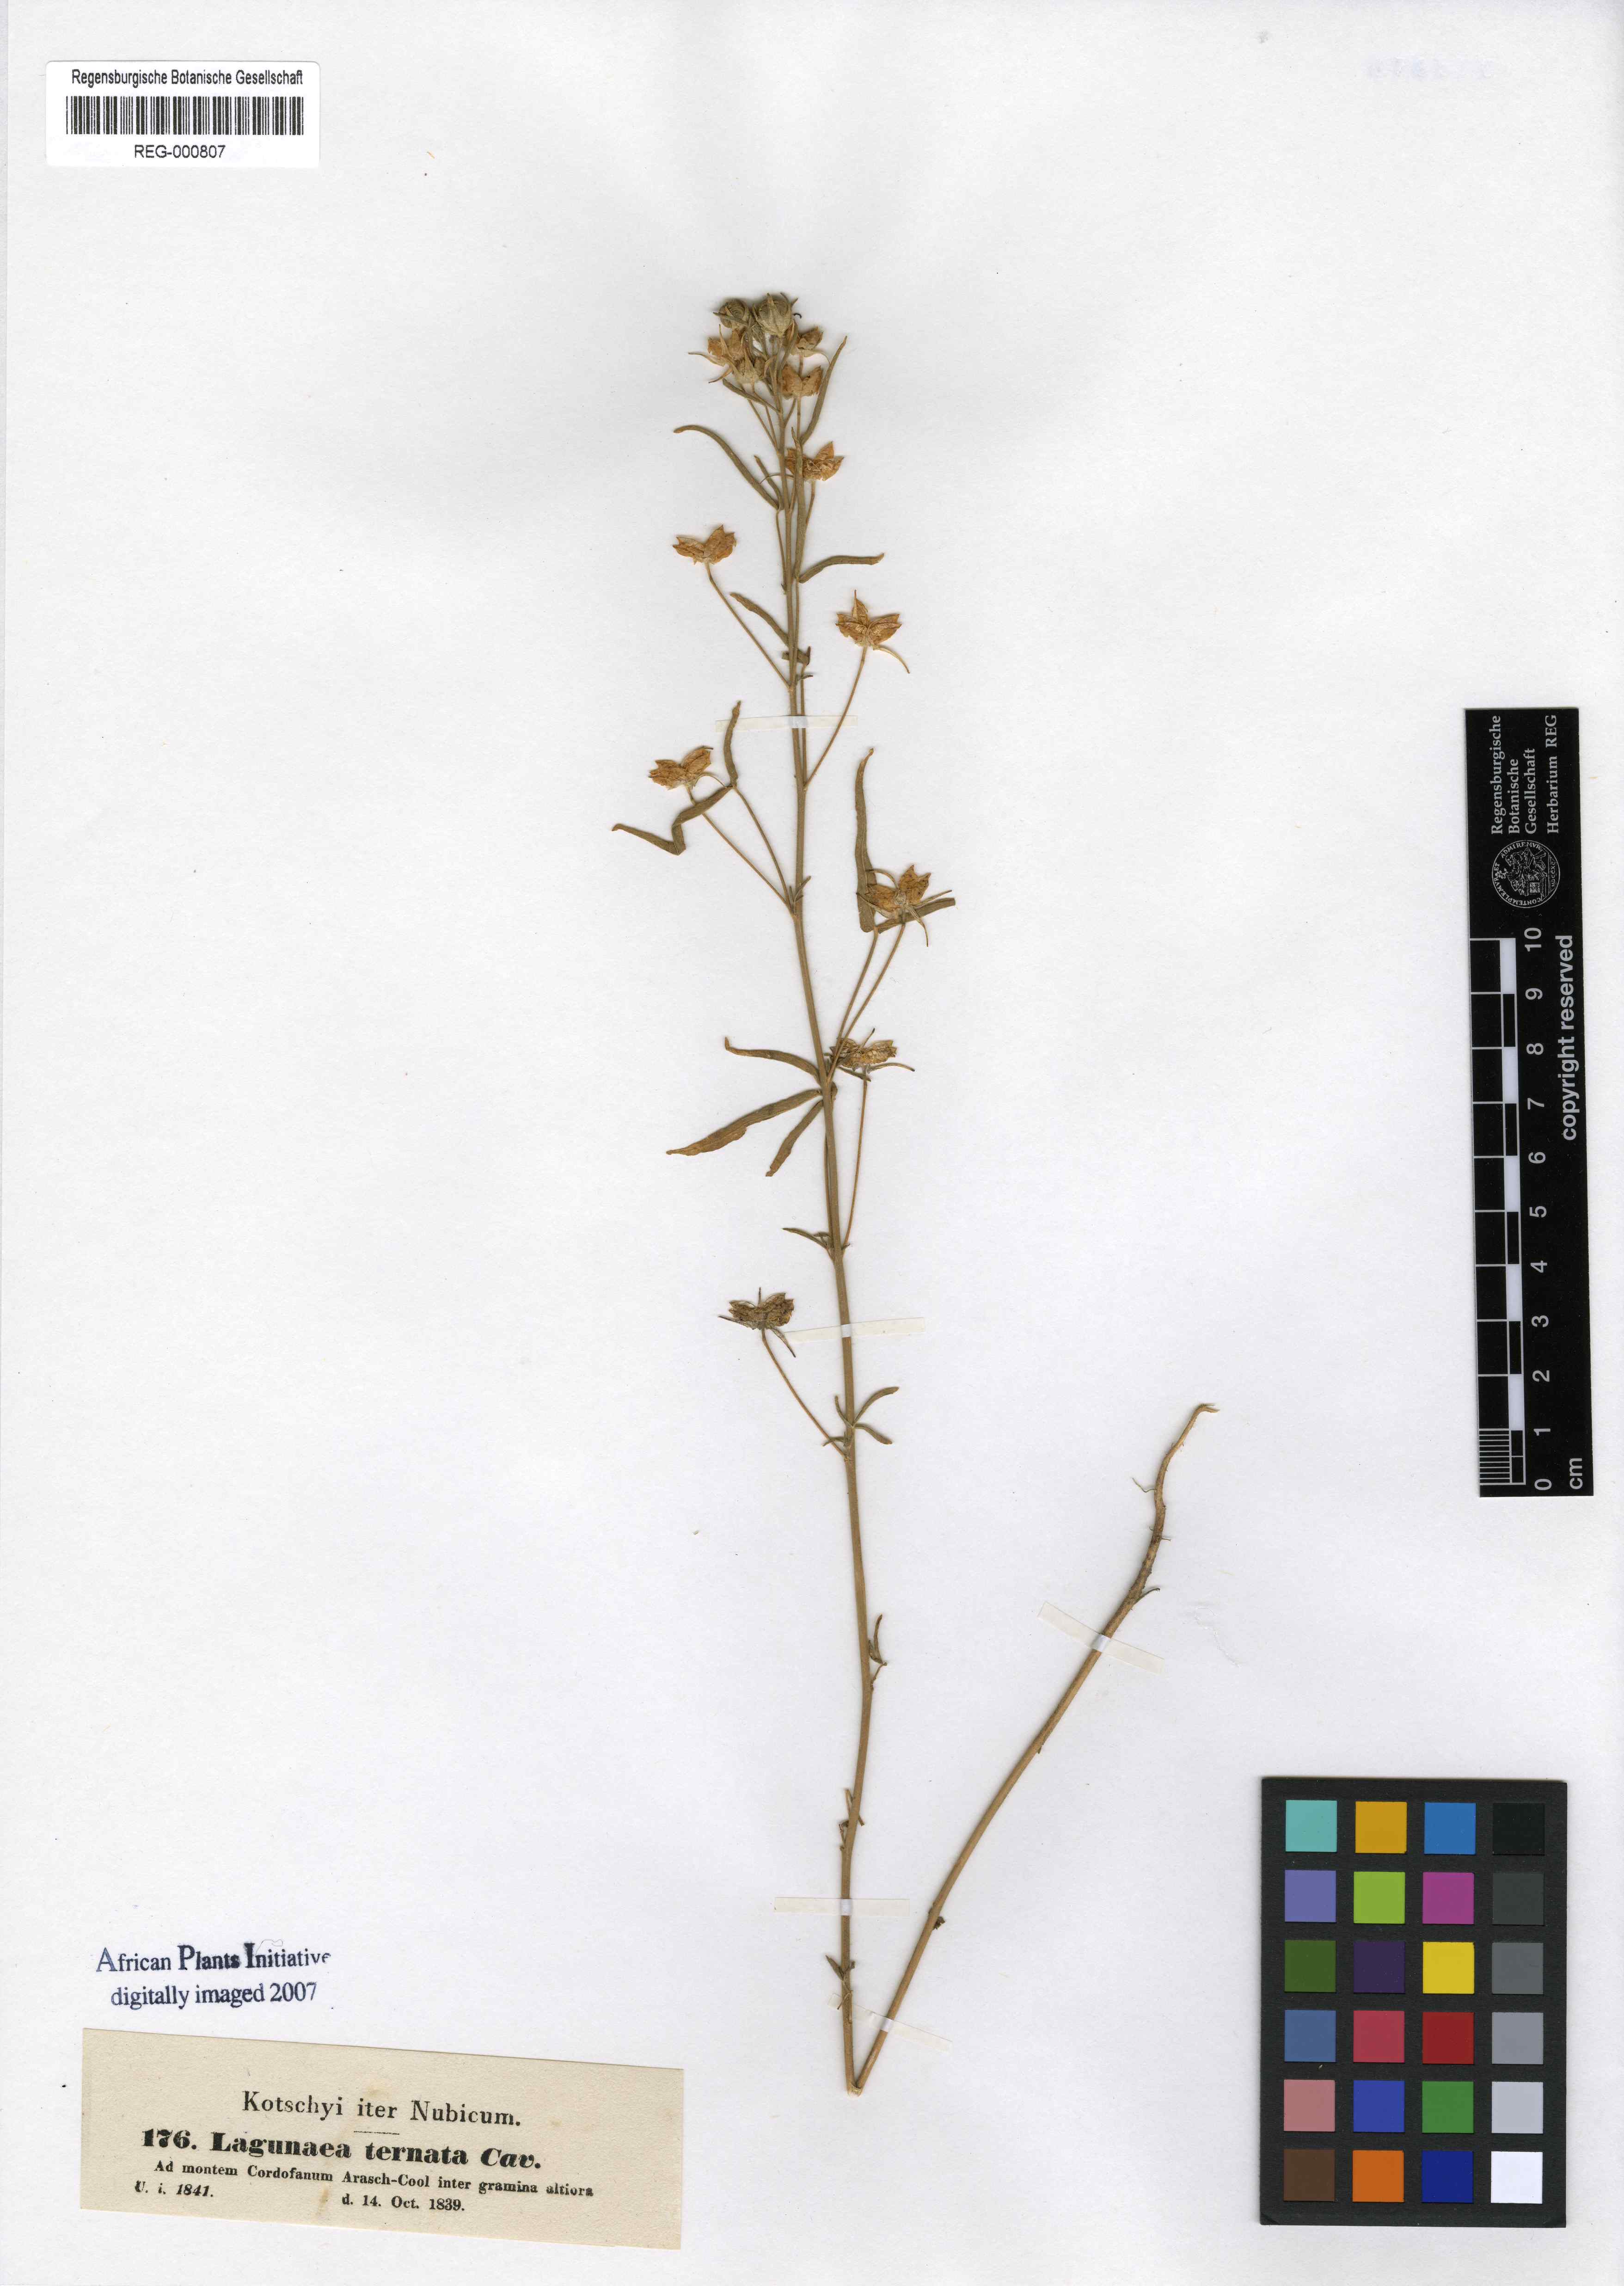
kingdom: Plantae
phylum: Tracheophyta
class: Magnoliopsida
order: Malvales
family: Malvaceae
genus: Hibiscus
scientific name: Hibiscus trionum
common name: Bladder ketmia
